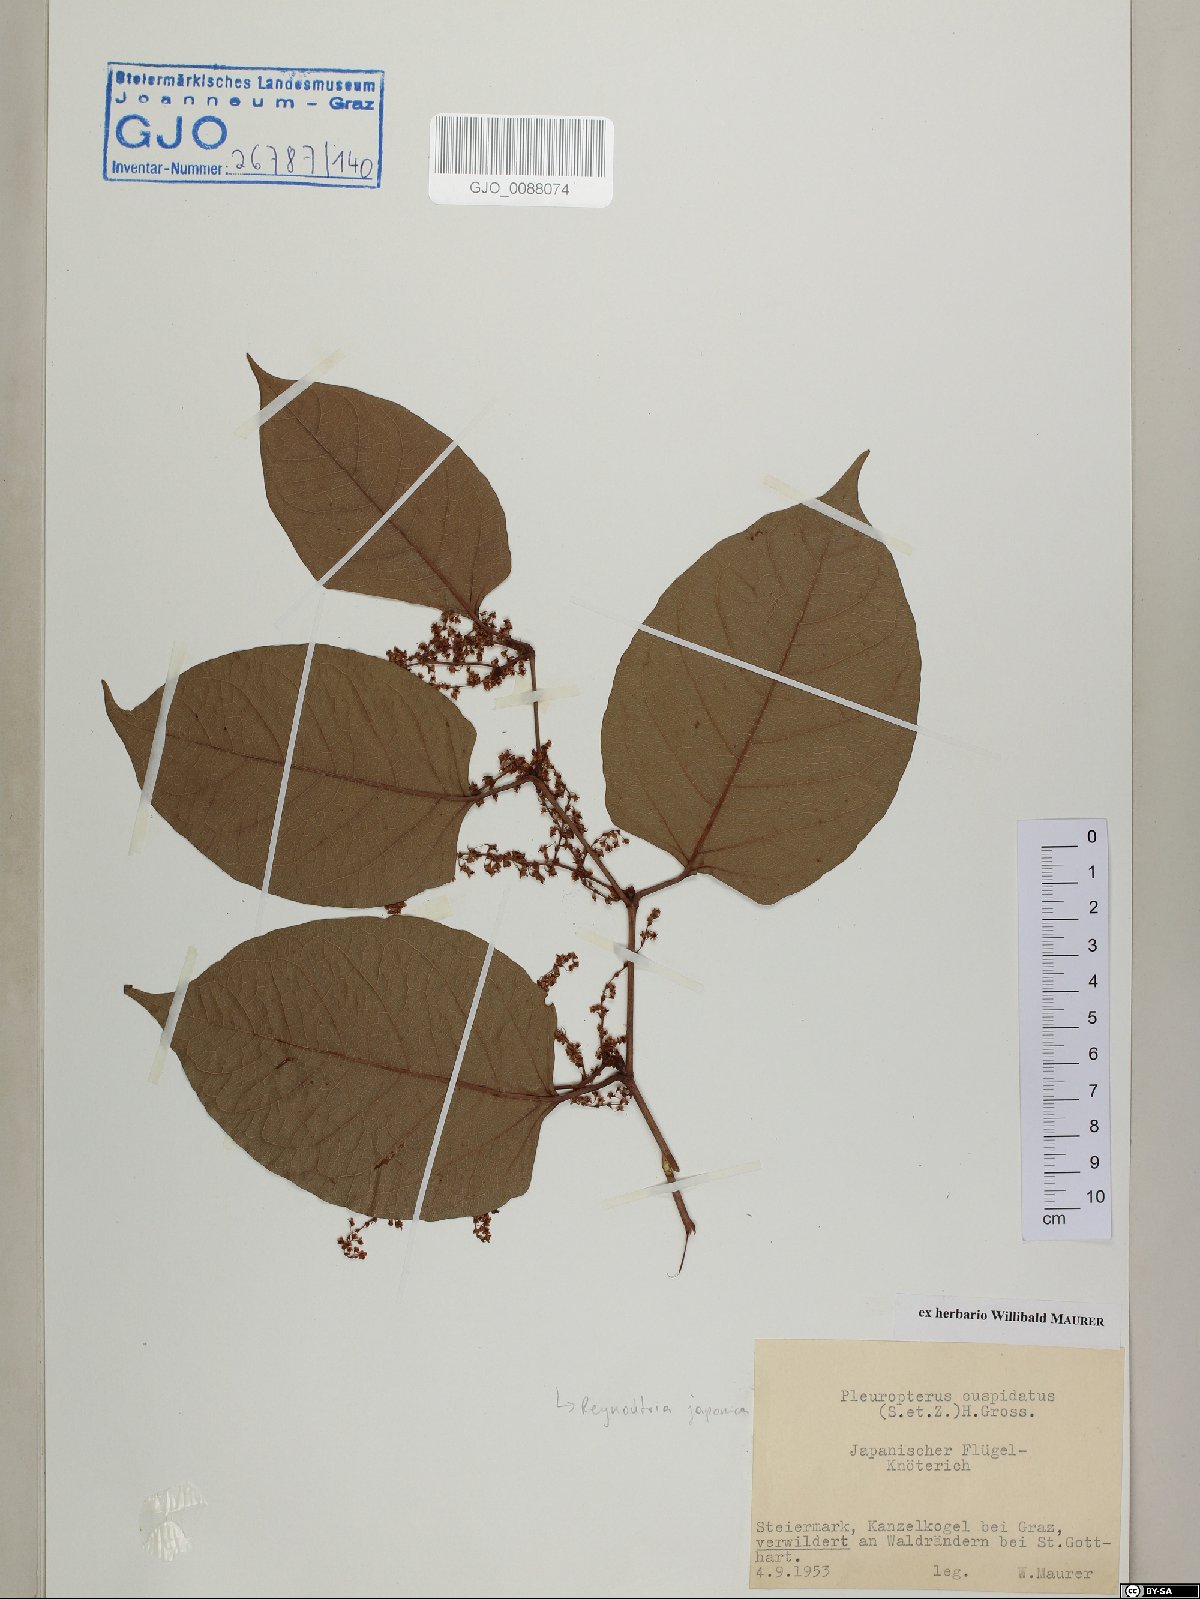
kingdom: Plantae
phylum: Tracheophyta
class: Magnoliopsida
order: Caryophyllales
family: Polygonaceae
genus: Reynoutria
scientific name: Reynoutria japonica
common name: Japanese knotweed
